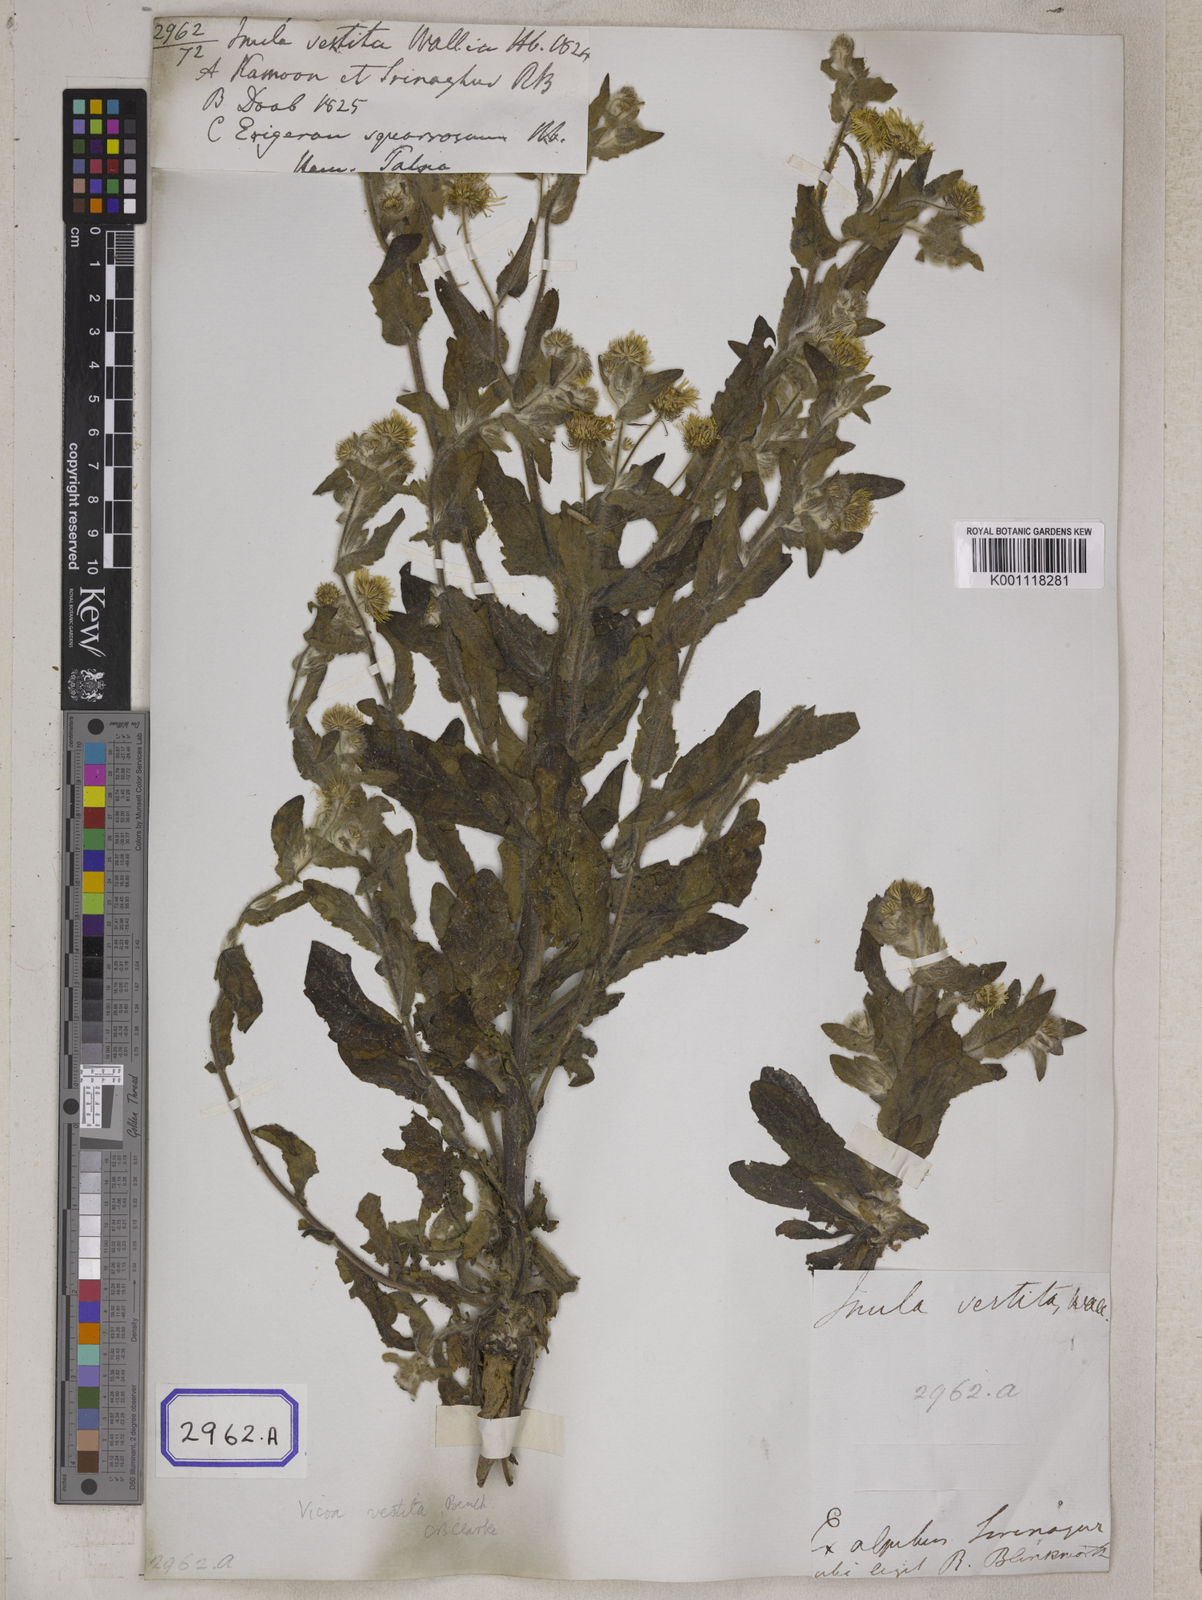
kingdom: Plantae
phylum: Tracheophyta
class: Magnoliopsida
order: Asterales
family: Asteraceae
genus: Pentanema
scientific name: Pentanema divaricatum
